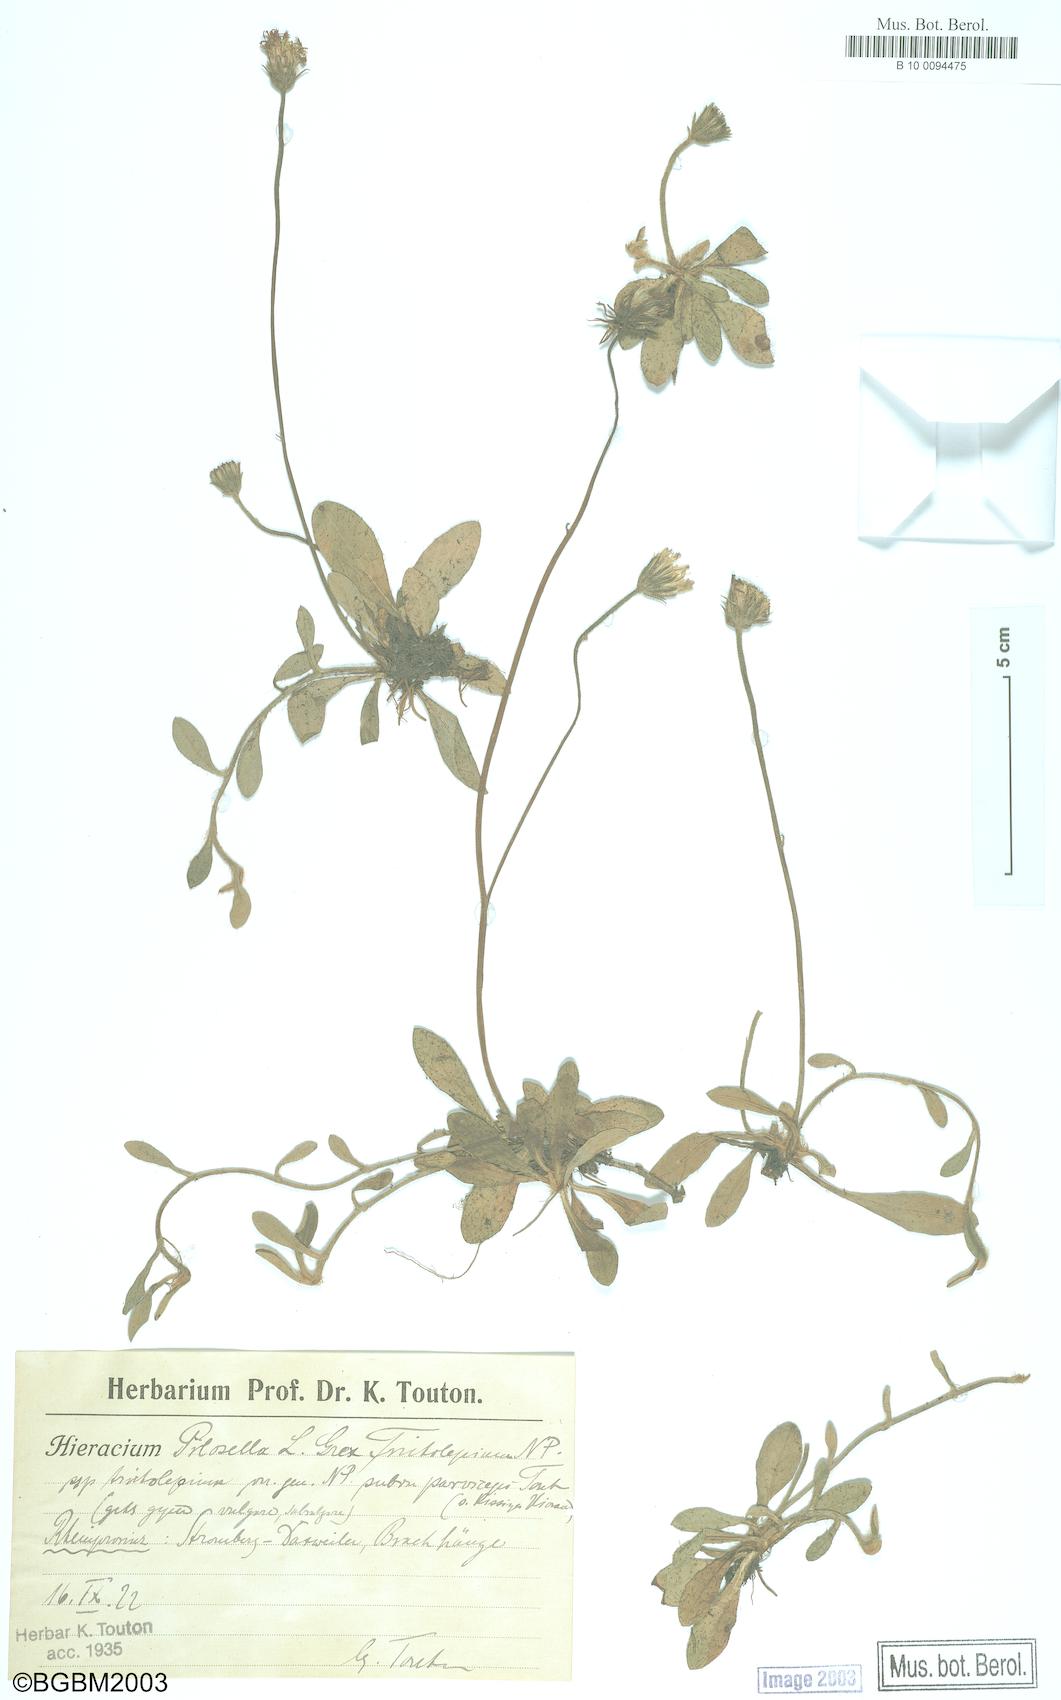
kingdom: Plantae
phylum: Tracheophyta
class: Magnoliopsida
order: Asterales
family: Asteraceae
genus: Pilosella
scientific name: Pilosella officinarum
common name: Mouse-ear hawkweed
